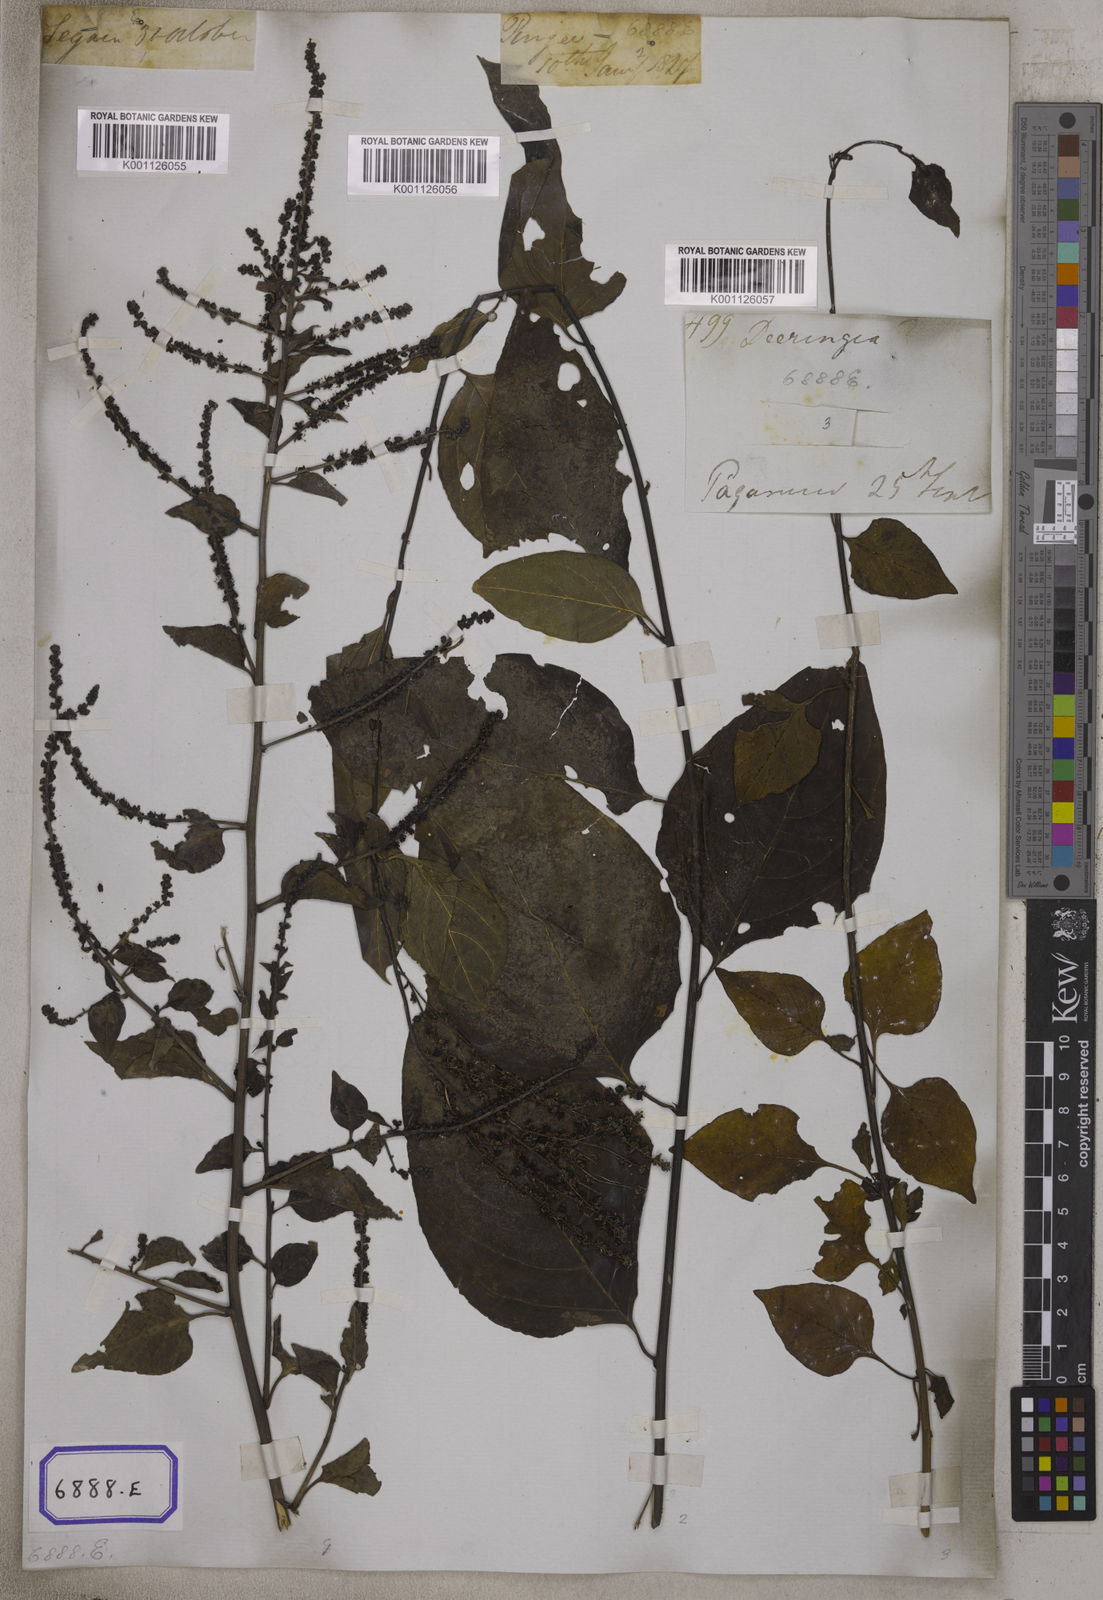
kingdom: Plantae
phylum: Tracheophyta
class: Magnoliopsida
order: Caryophyllales
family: Amaranthaceae
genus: Deeringia
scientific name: Deeringia amaranthoides
